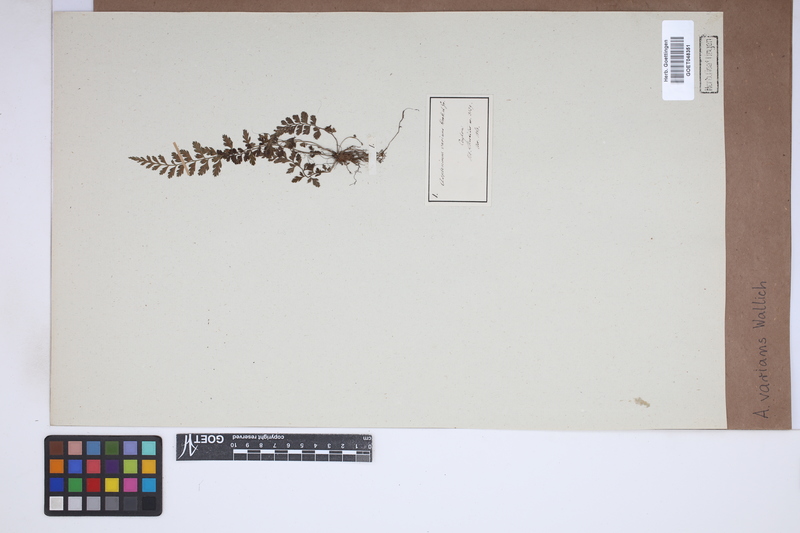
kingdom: Plantae
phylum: Tracheophyta
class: Polypodiopsida
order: Polypodiales
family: Aspleniaceae
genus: Asplenium
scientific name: Asplenium laciniatum
